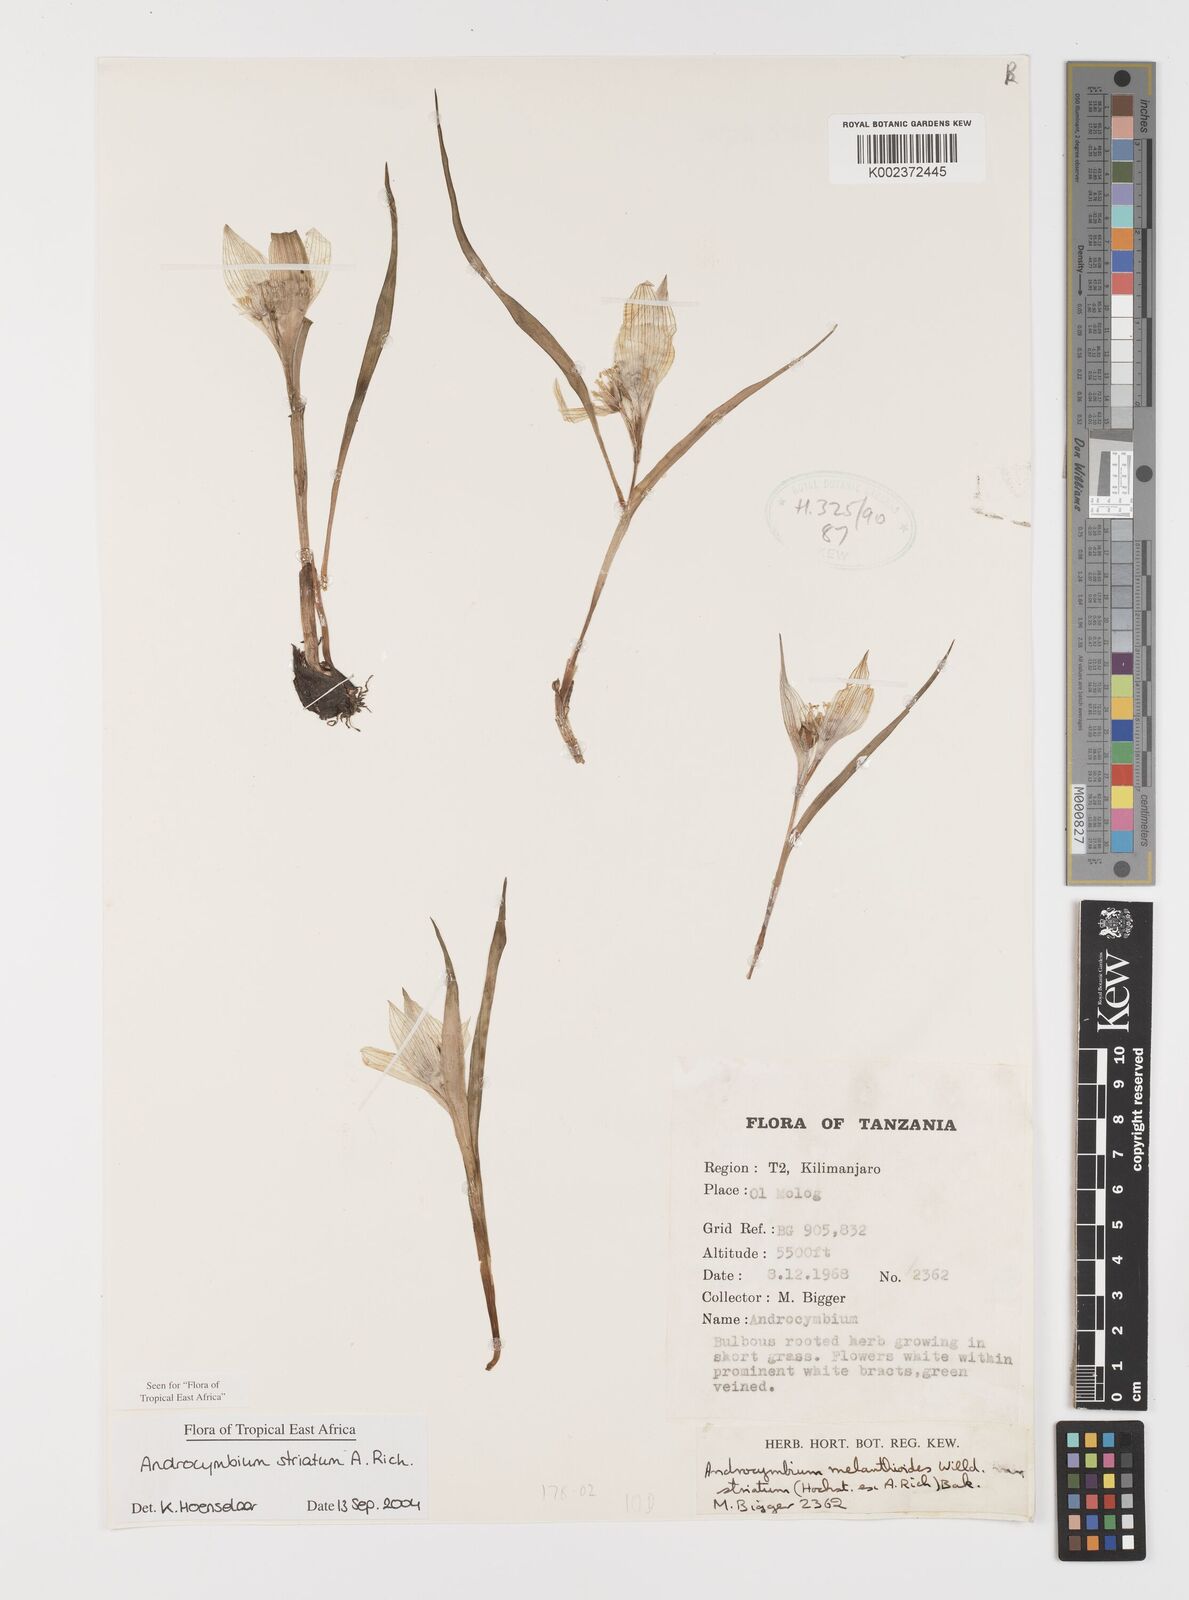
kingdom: Plantae
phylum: Tracheophyta
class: Liliopsida
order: Liliales
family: Colchicaceae
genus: Colchicum
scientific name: Colchicum striatum
